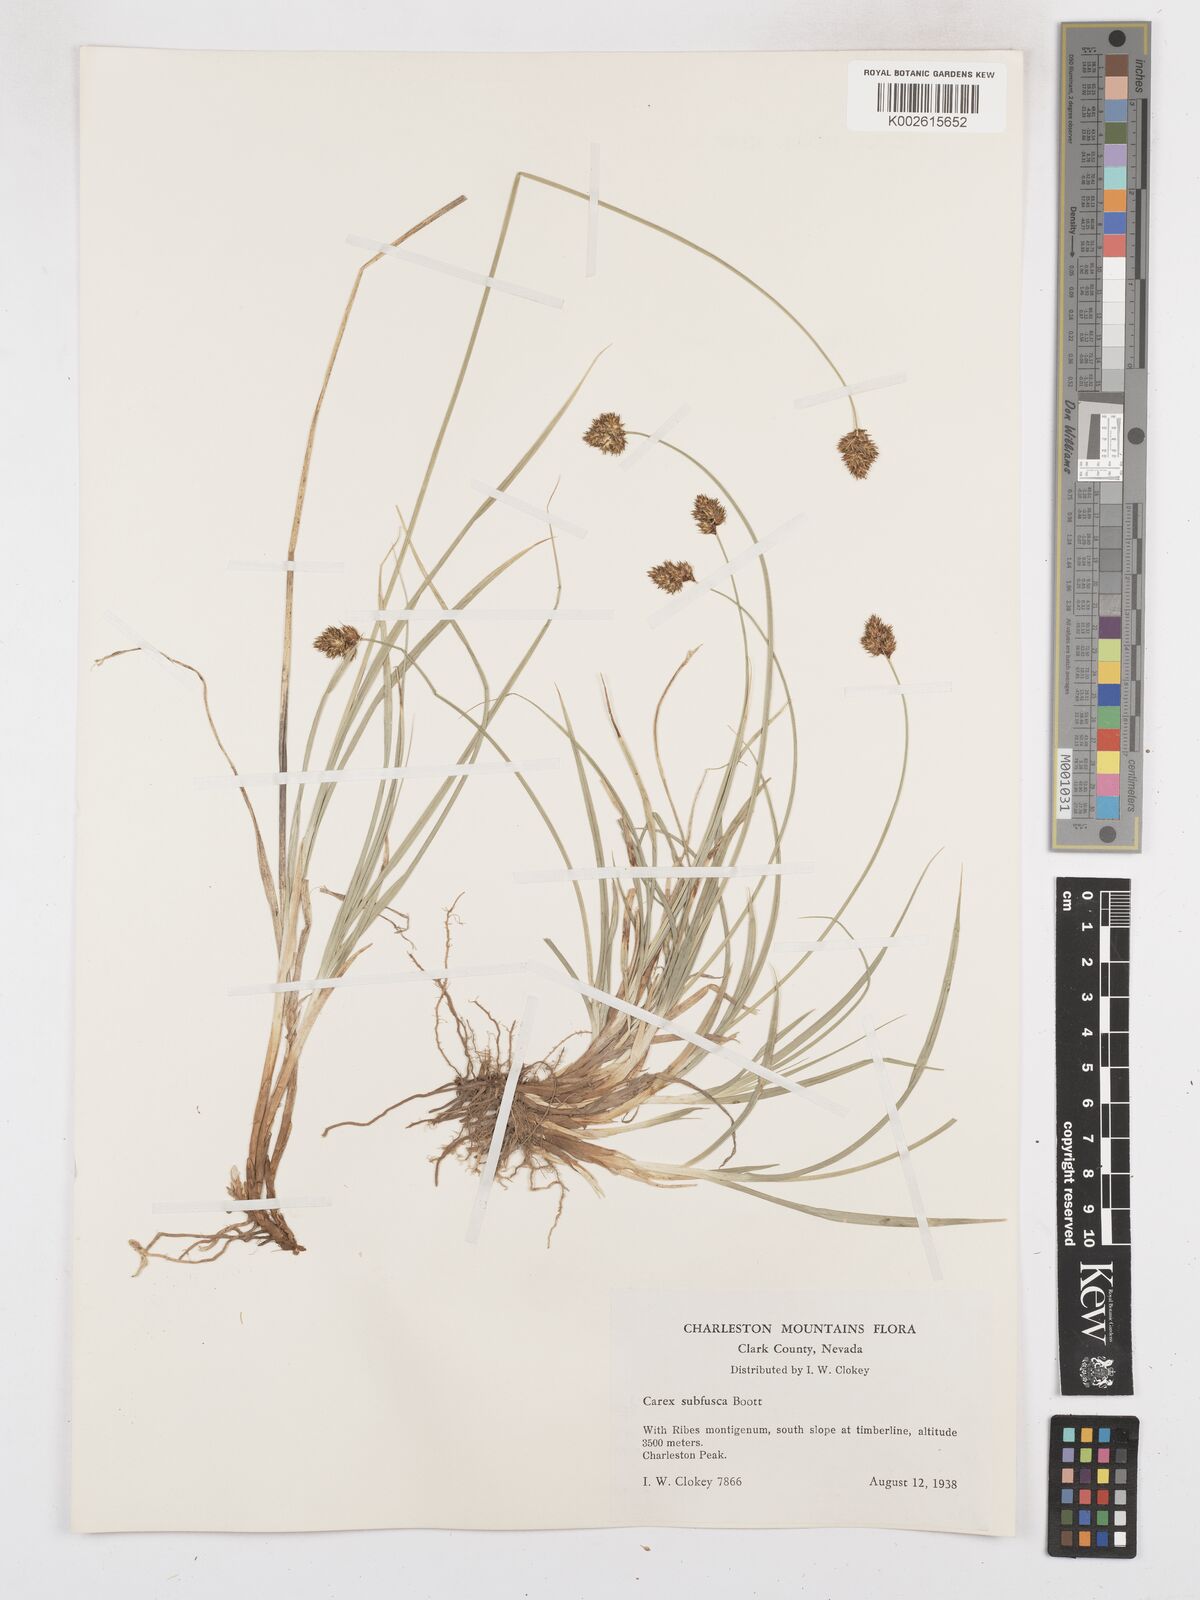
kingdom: Plantae
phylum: Tracheophyta
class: Liliopsida
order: Poales
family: Cyperaceae
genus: Carex
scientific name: Carex subfusca
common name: Brown sedge
